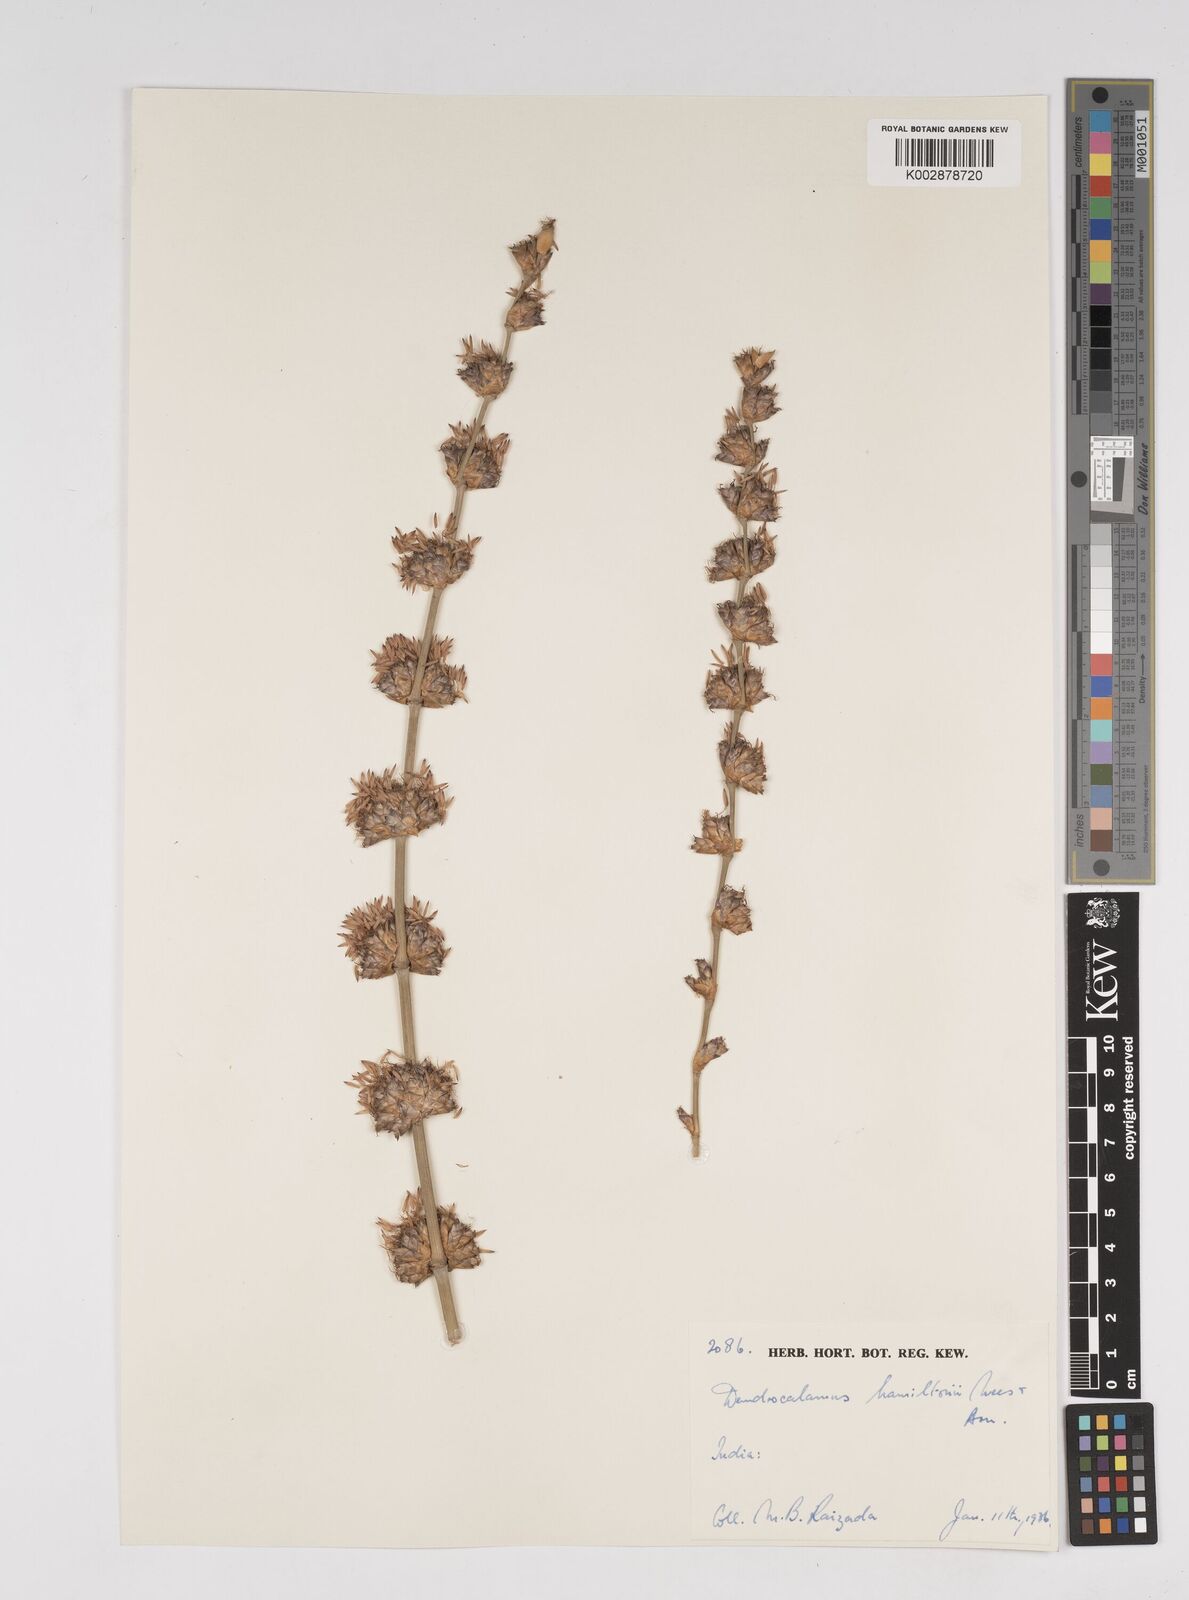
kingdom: Plantae
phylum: Tracheophyta
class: Liliopsida
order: Poales
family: Poaceae
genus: Dendrocalamus
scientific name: Dendrocalamus hamiltonii
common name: Tama bamboo
